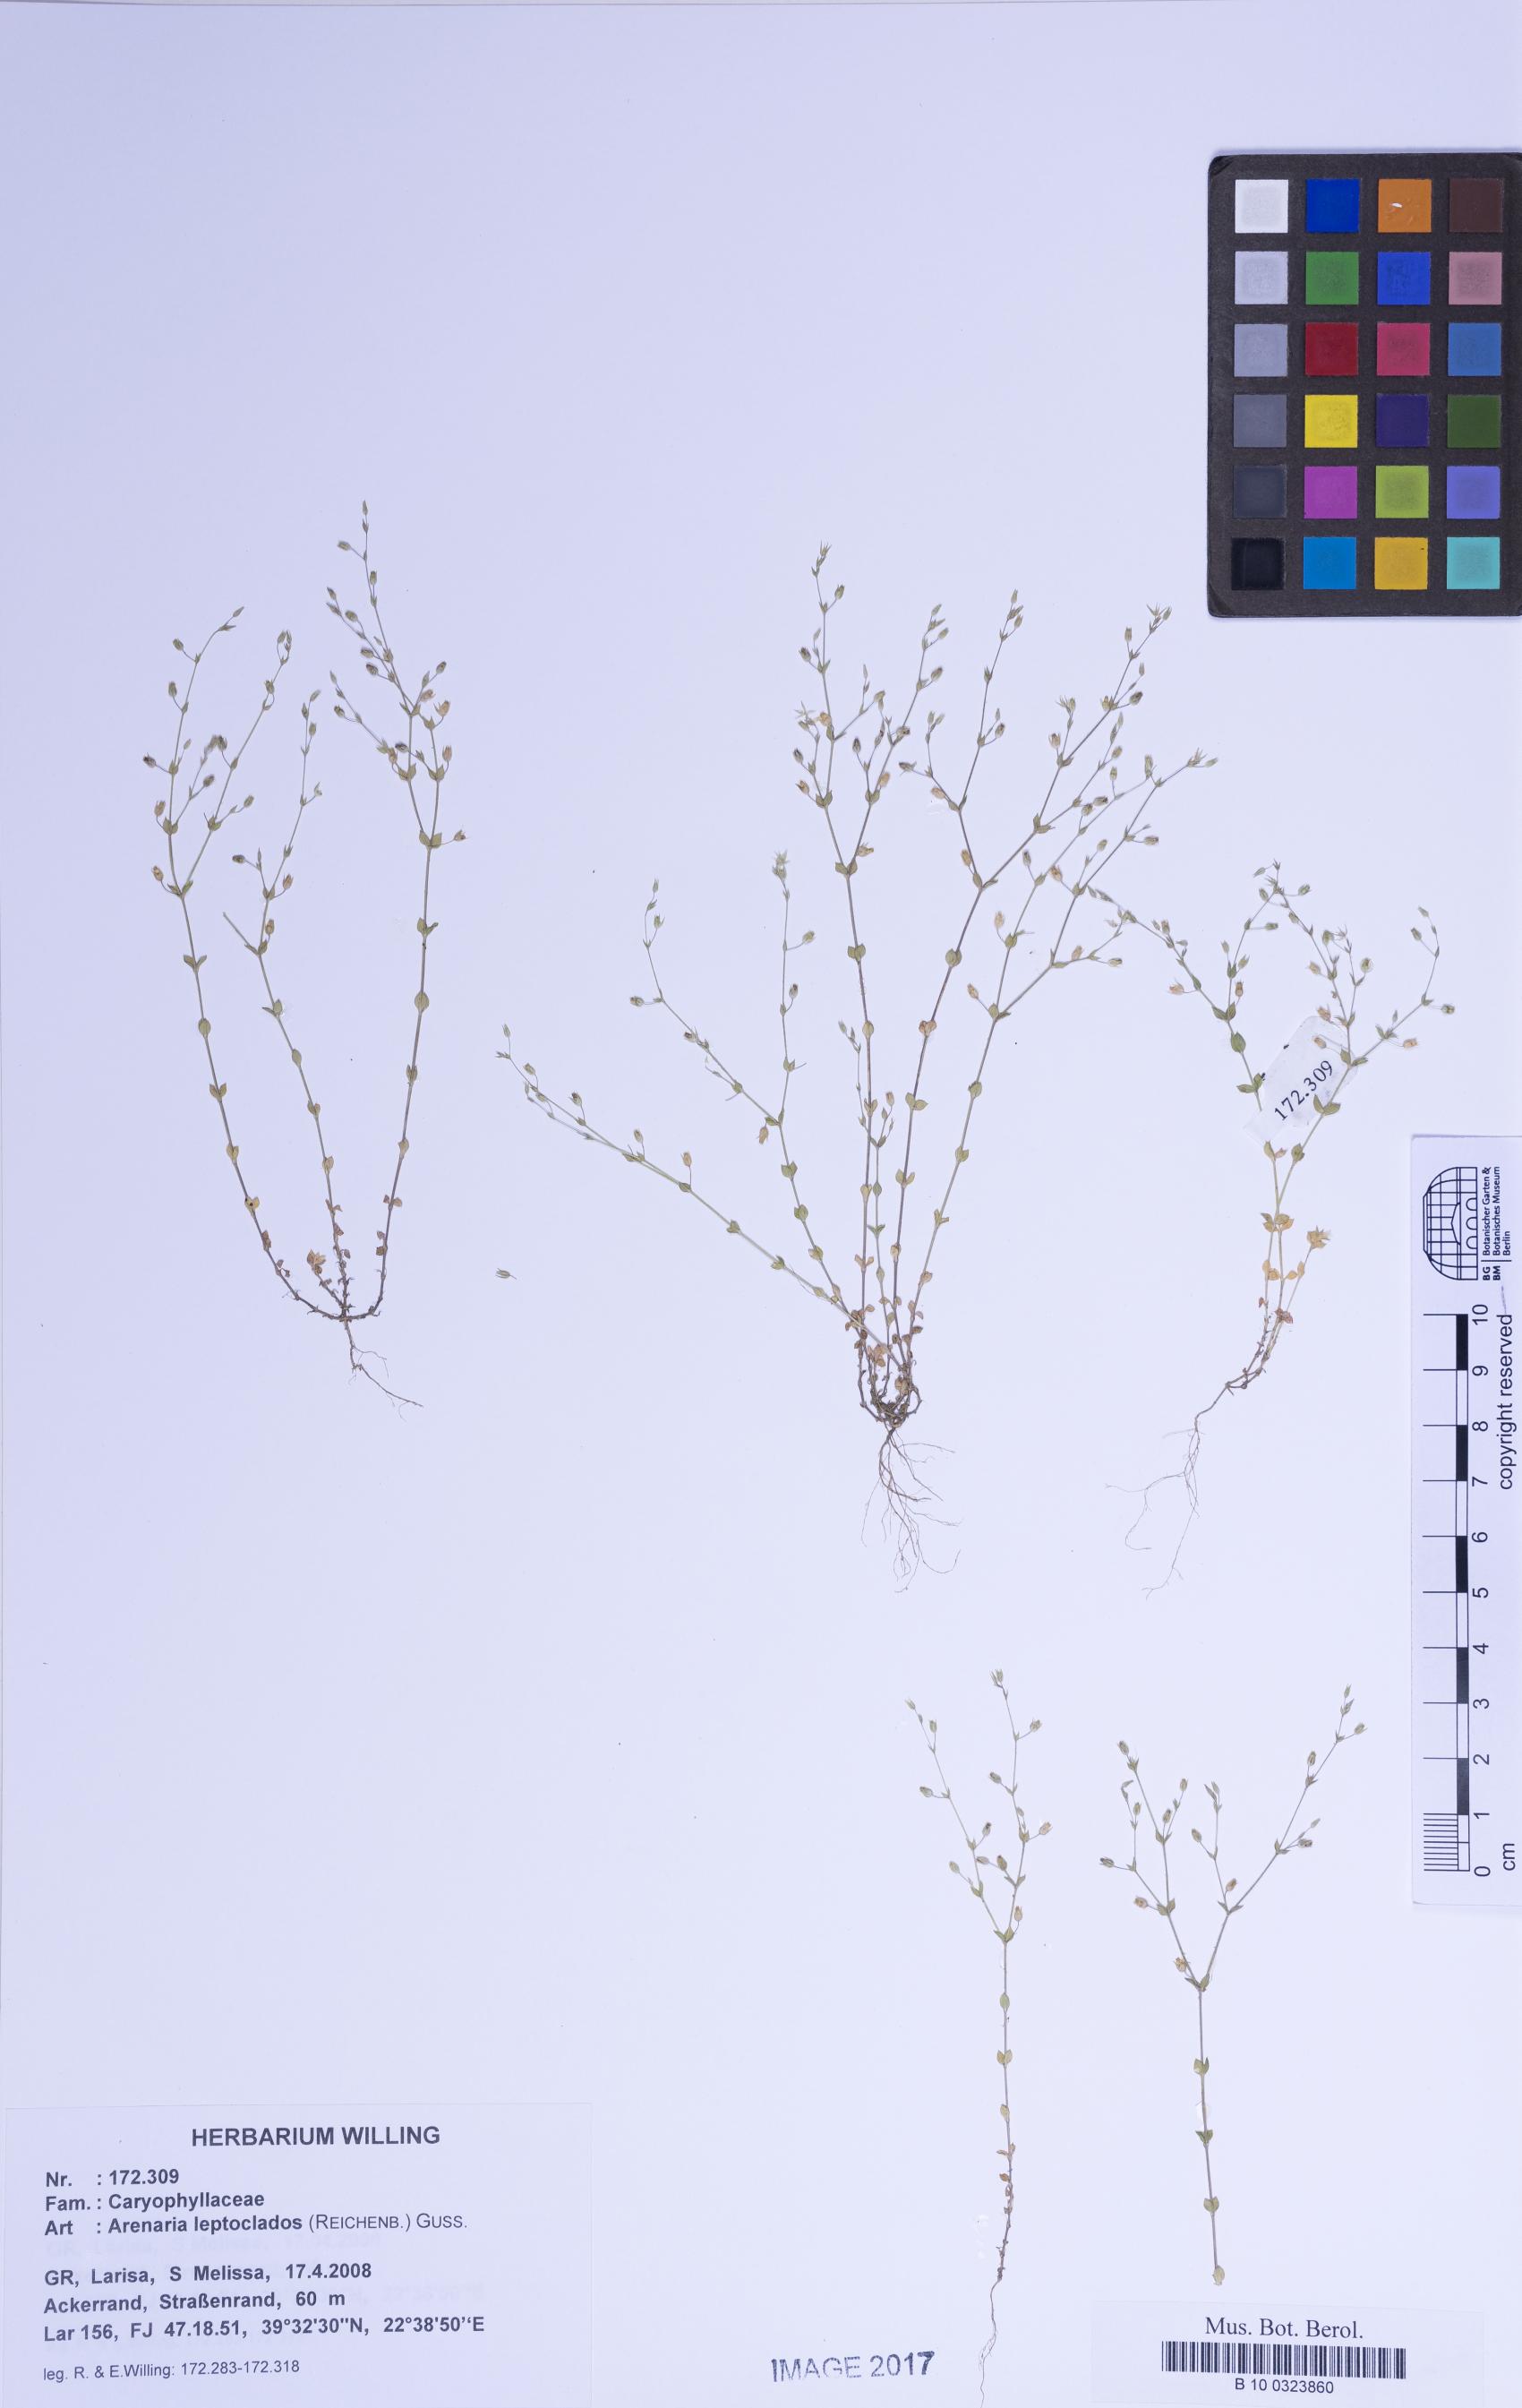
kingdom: Plantae
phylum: Tracheophyta
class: Magnoliopsida
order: Caryophyllales
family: Caryophyllaceae
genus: Arenaria
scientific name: Arenaria leptoclados
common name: Thyme-leaved sandwort
